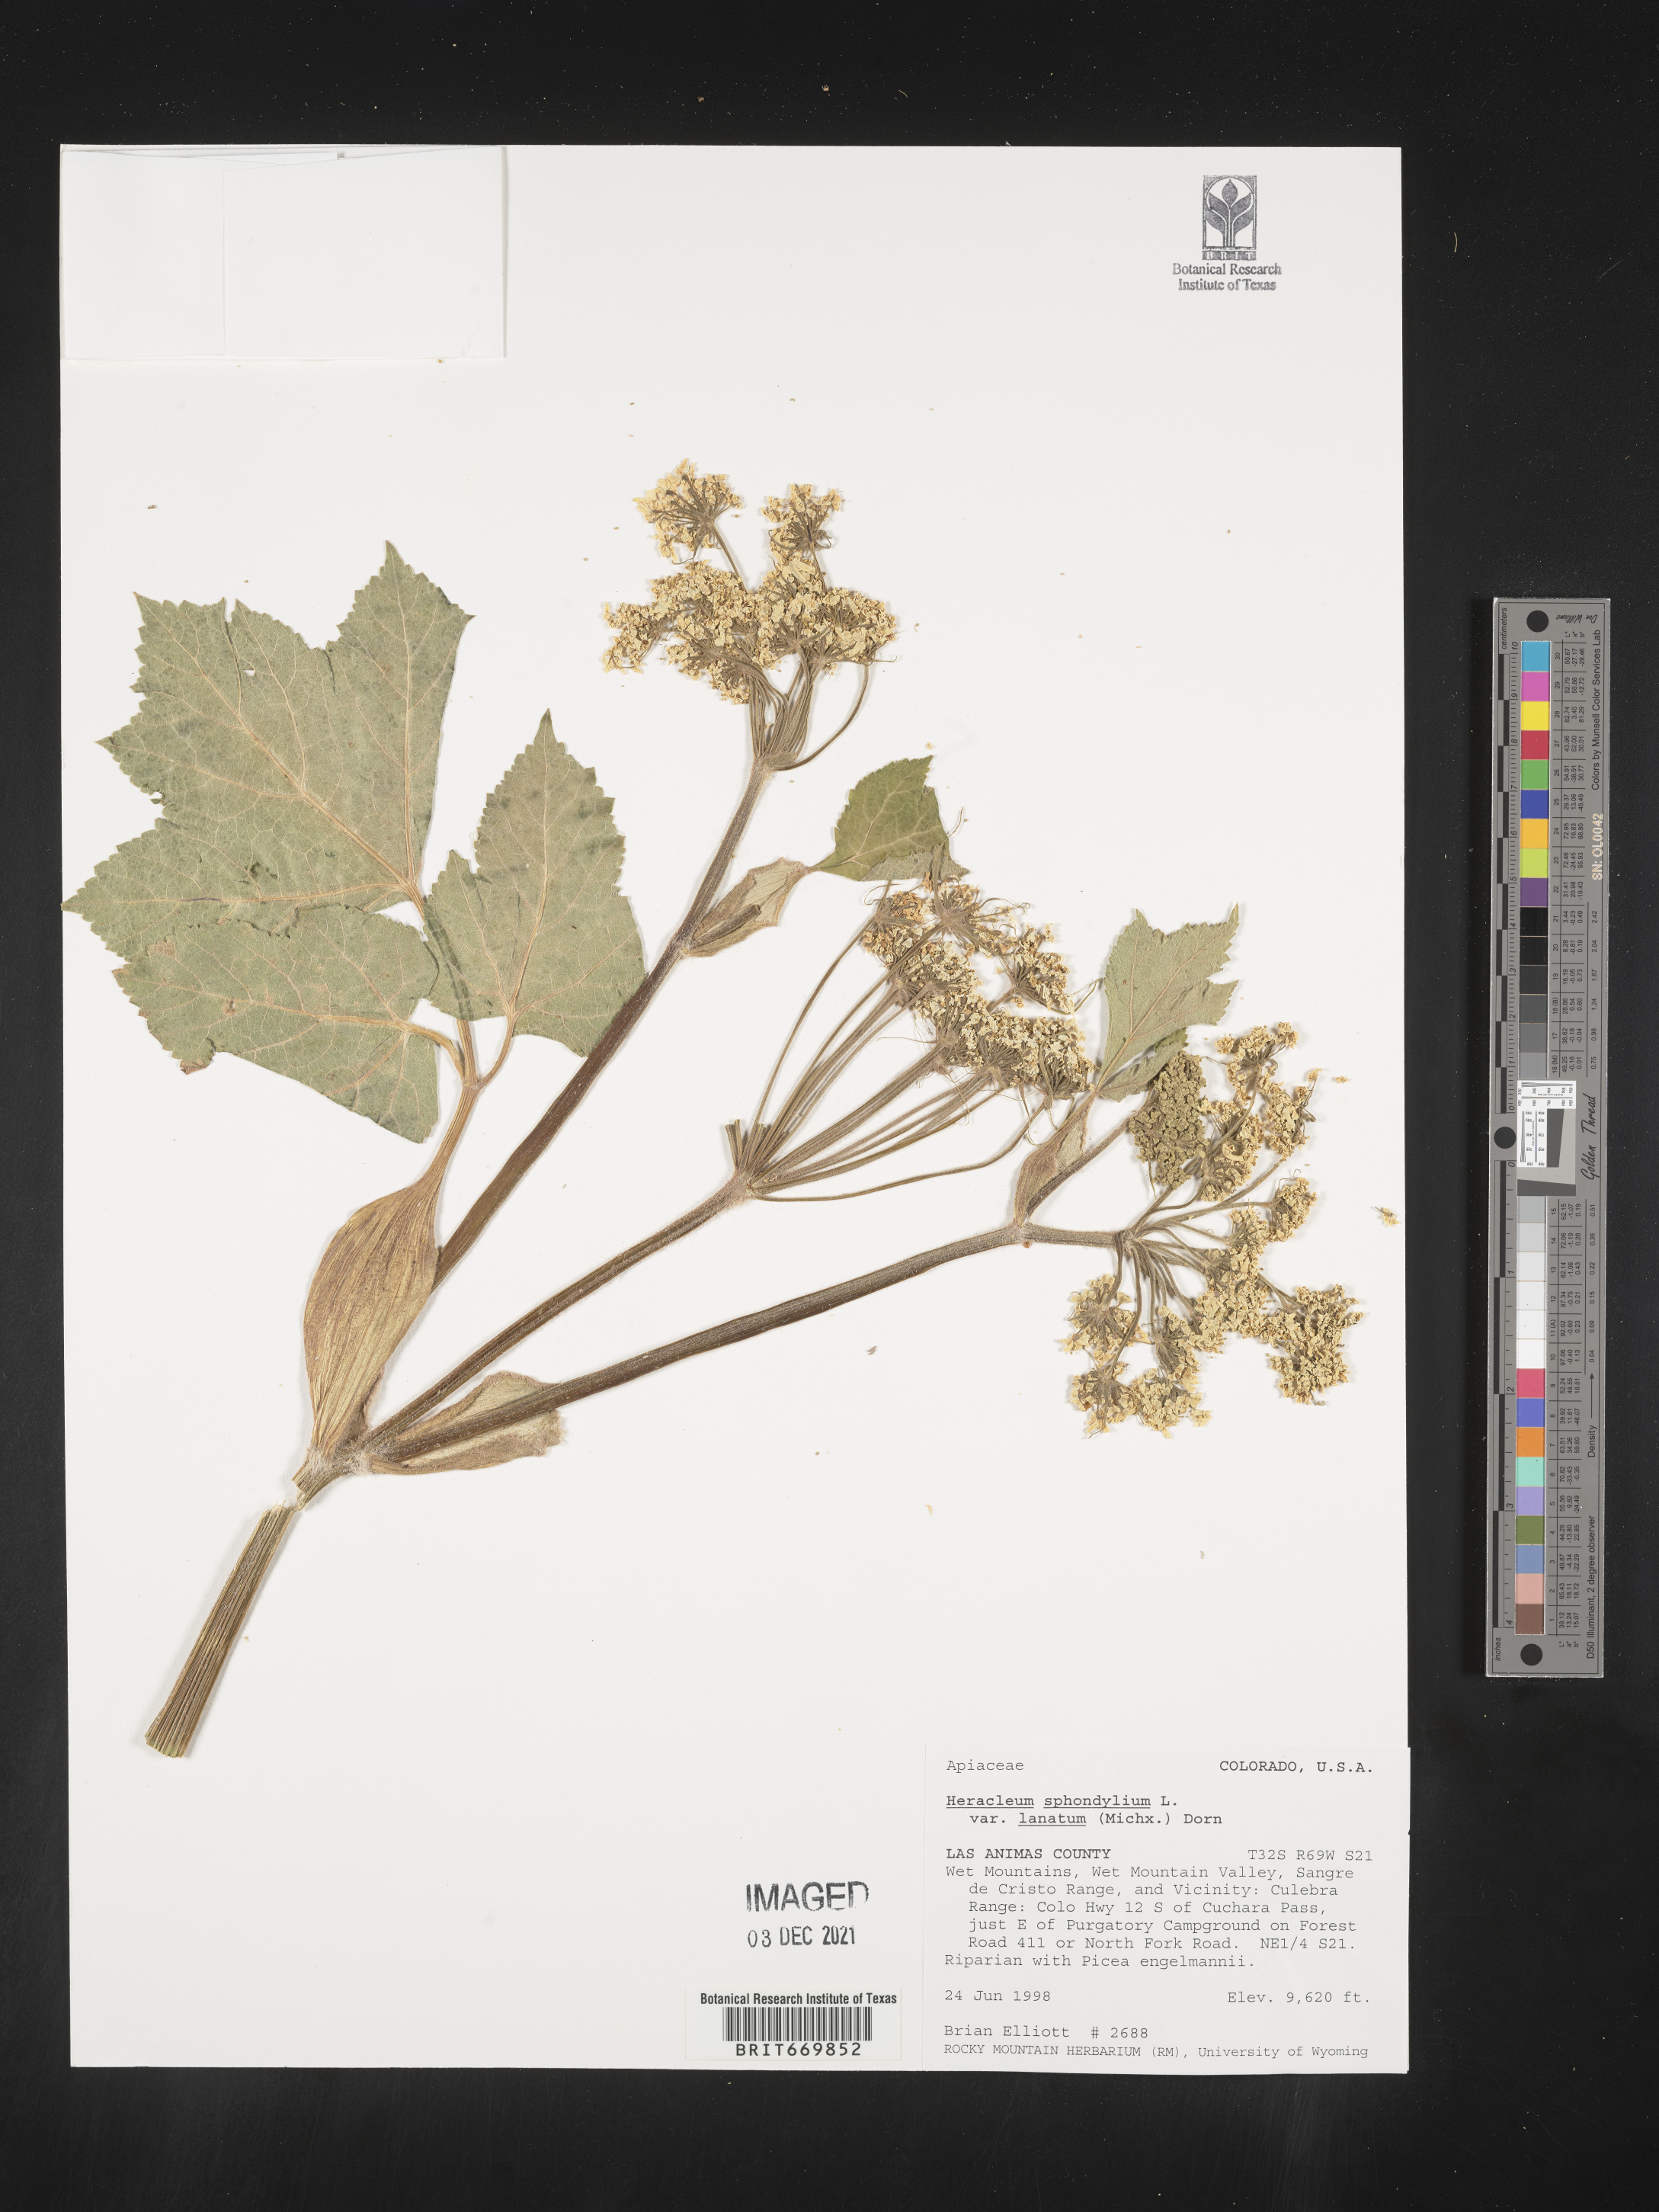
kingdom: Plantae
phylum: Tracheophyta
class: Magnoliopsida
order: Apiales
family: Apiaceae
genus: Heracleum
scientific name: Heracleum
